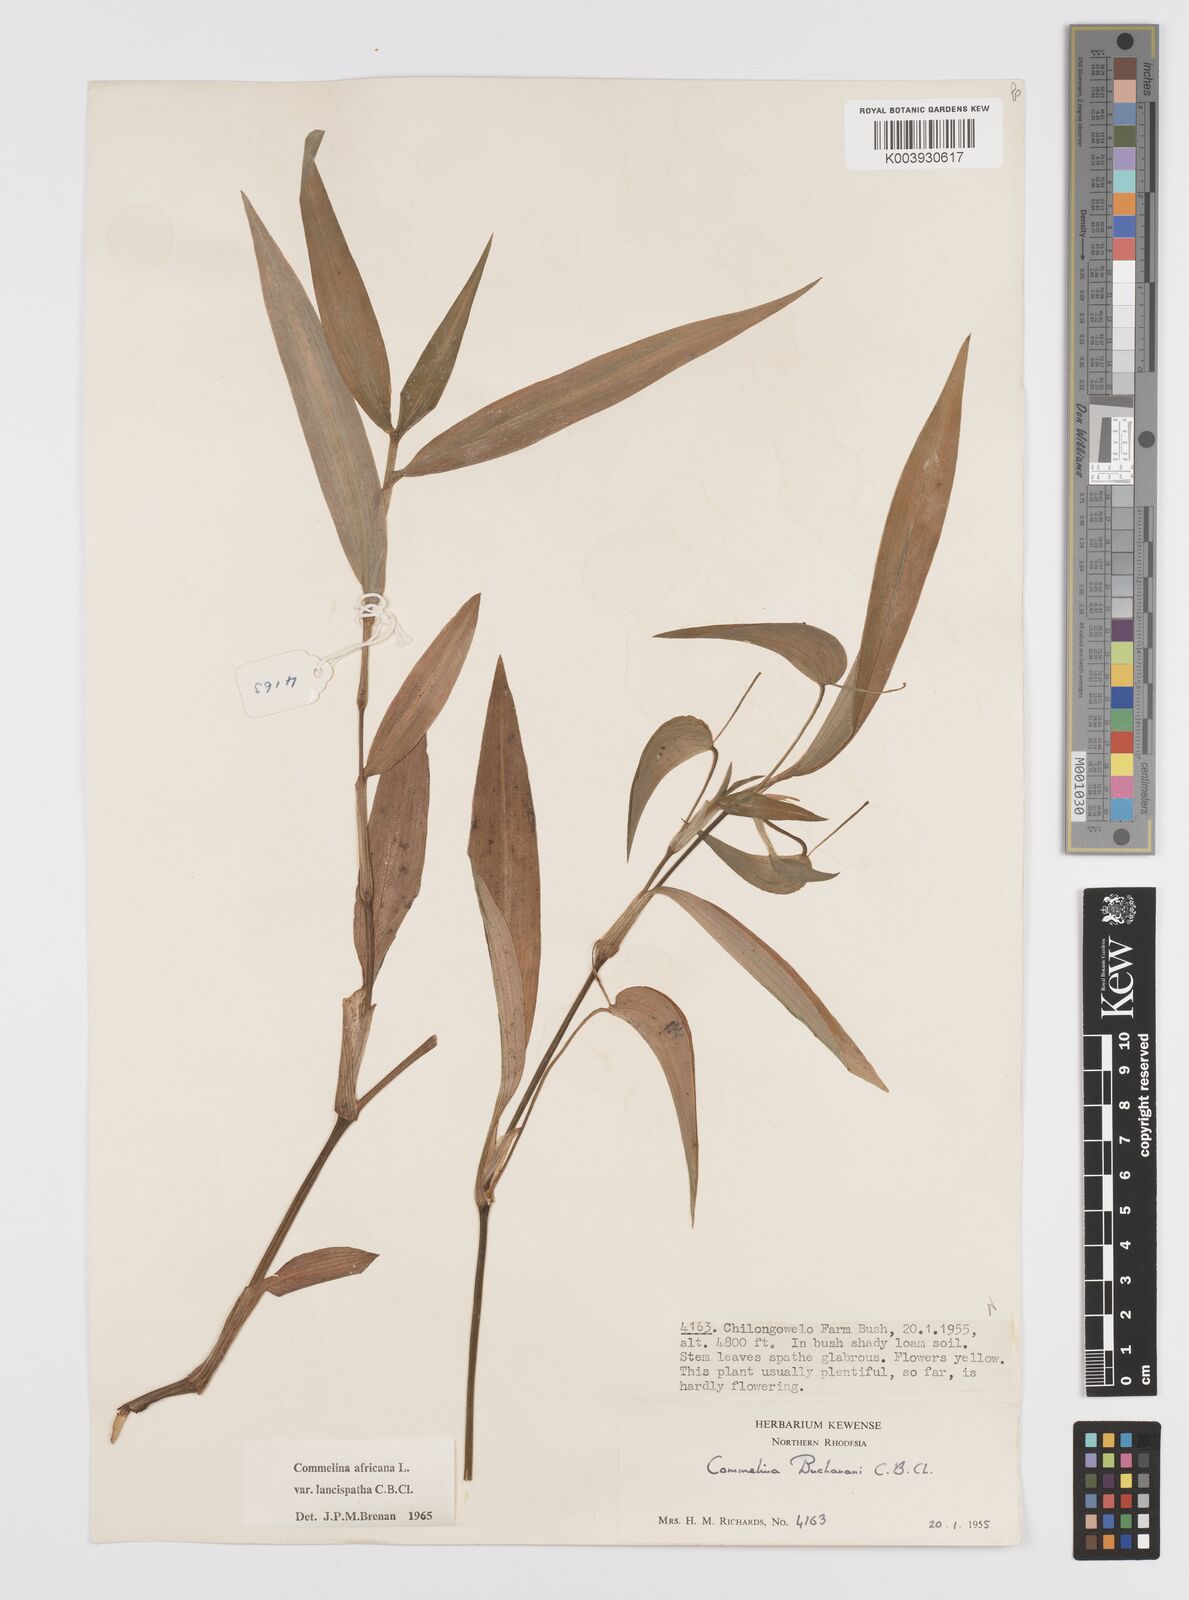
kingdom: Plantae
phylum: Tracheophyta
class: Liliopsida
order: Commelinales
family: Commelinaceae
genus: Commelina
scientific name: Commelina africana
